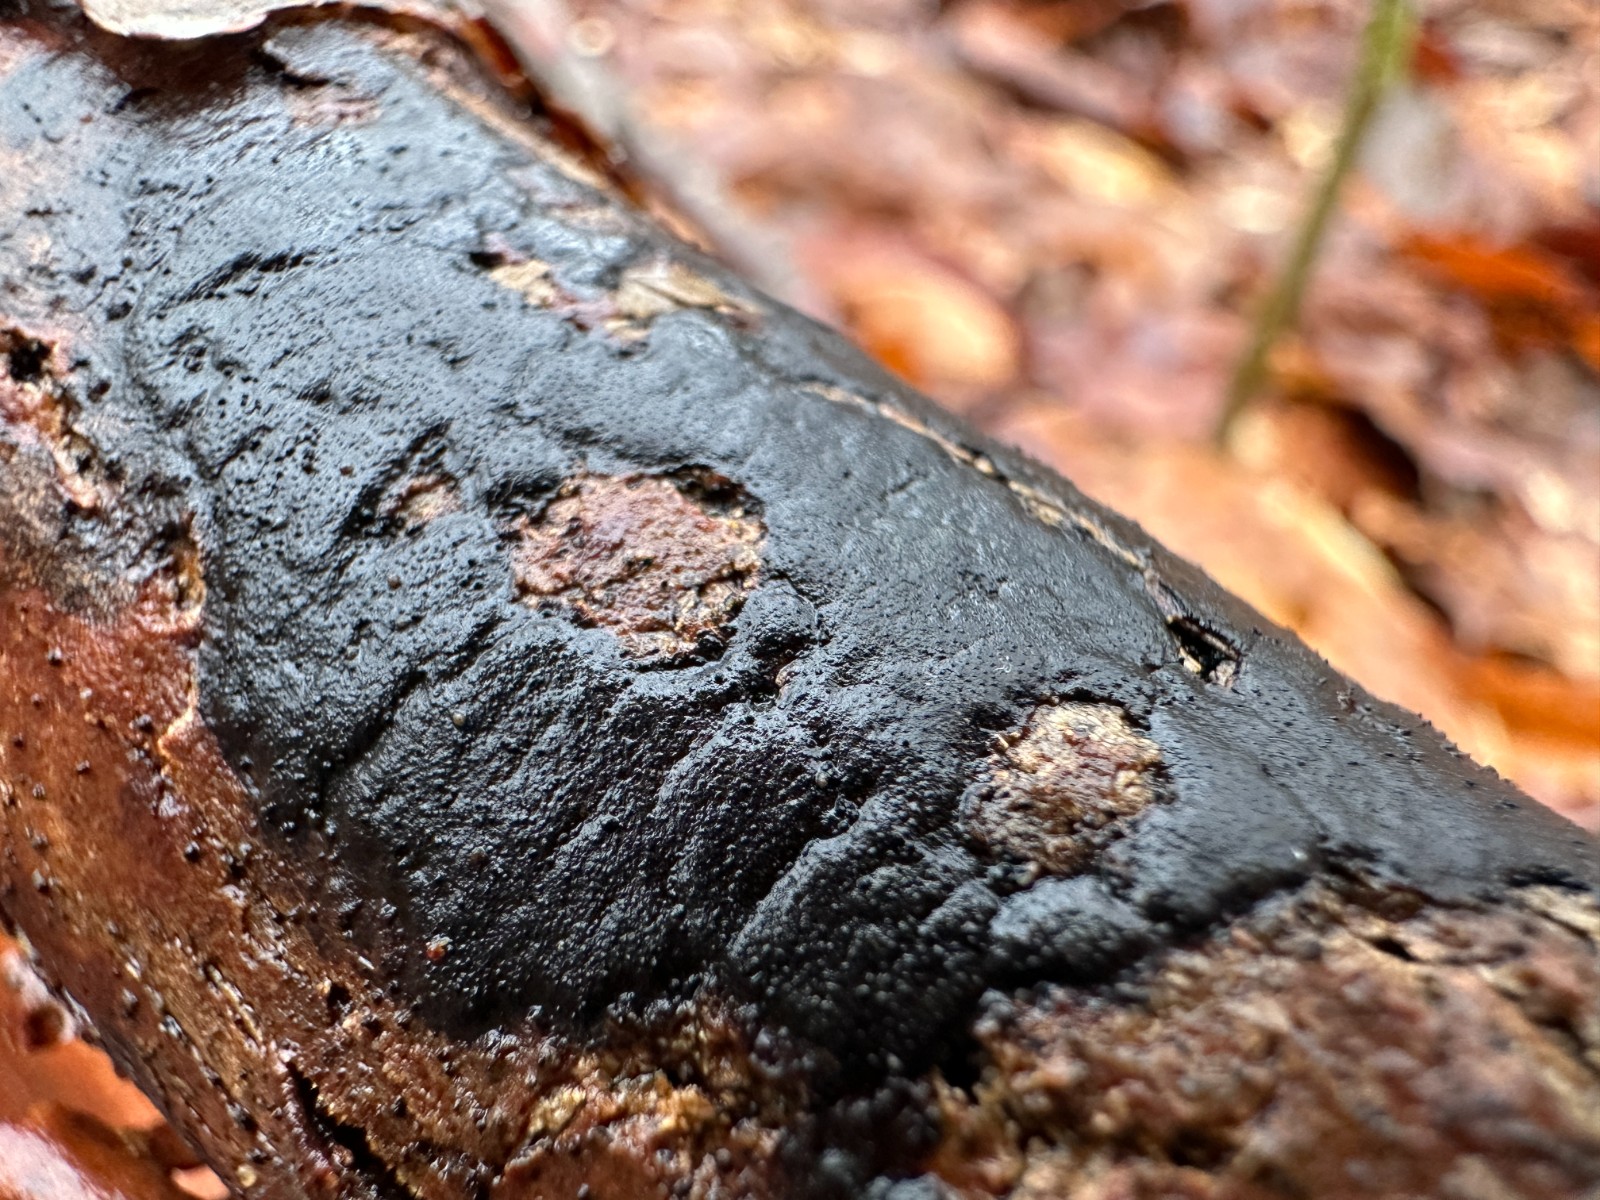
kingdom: Fungi
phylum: Ascomycota
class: Sordariomycetes
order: Xylariales
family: Diatrypaceae
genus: Diatrype
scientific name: Diatrype decorticata
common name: barksprænger-kulskorpe
